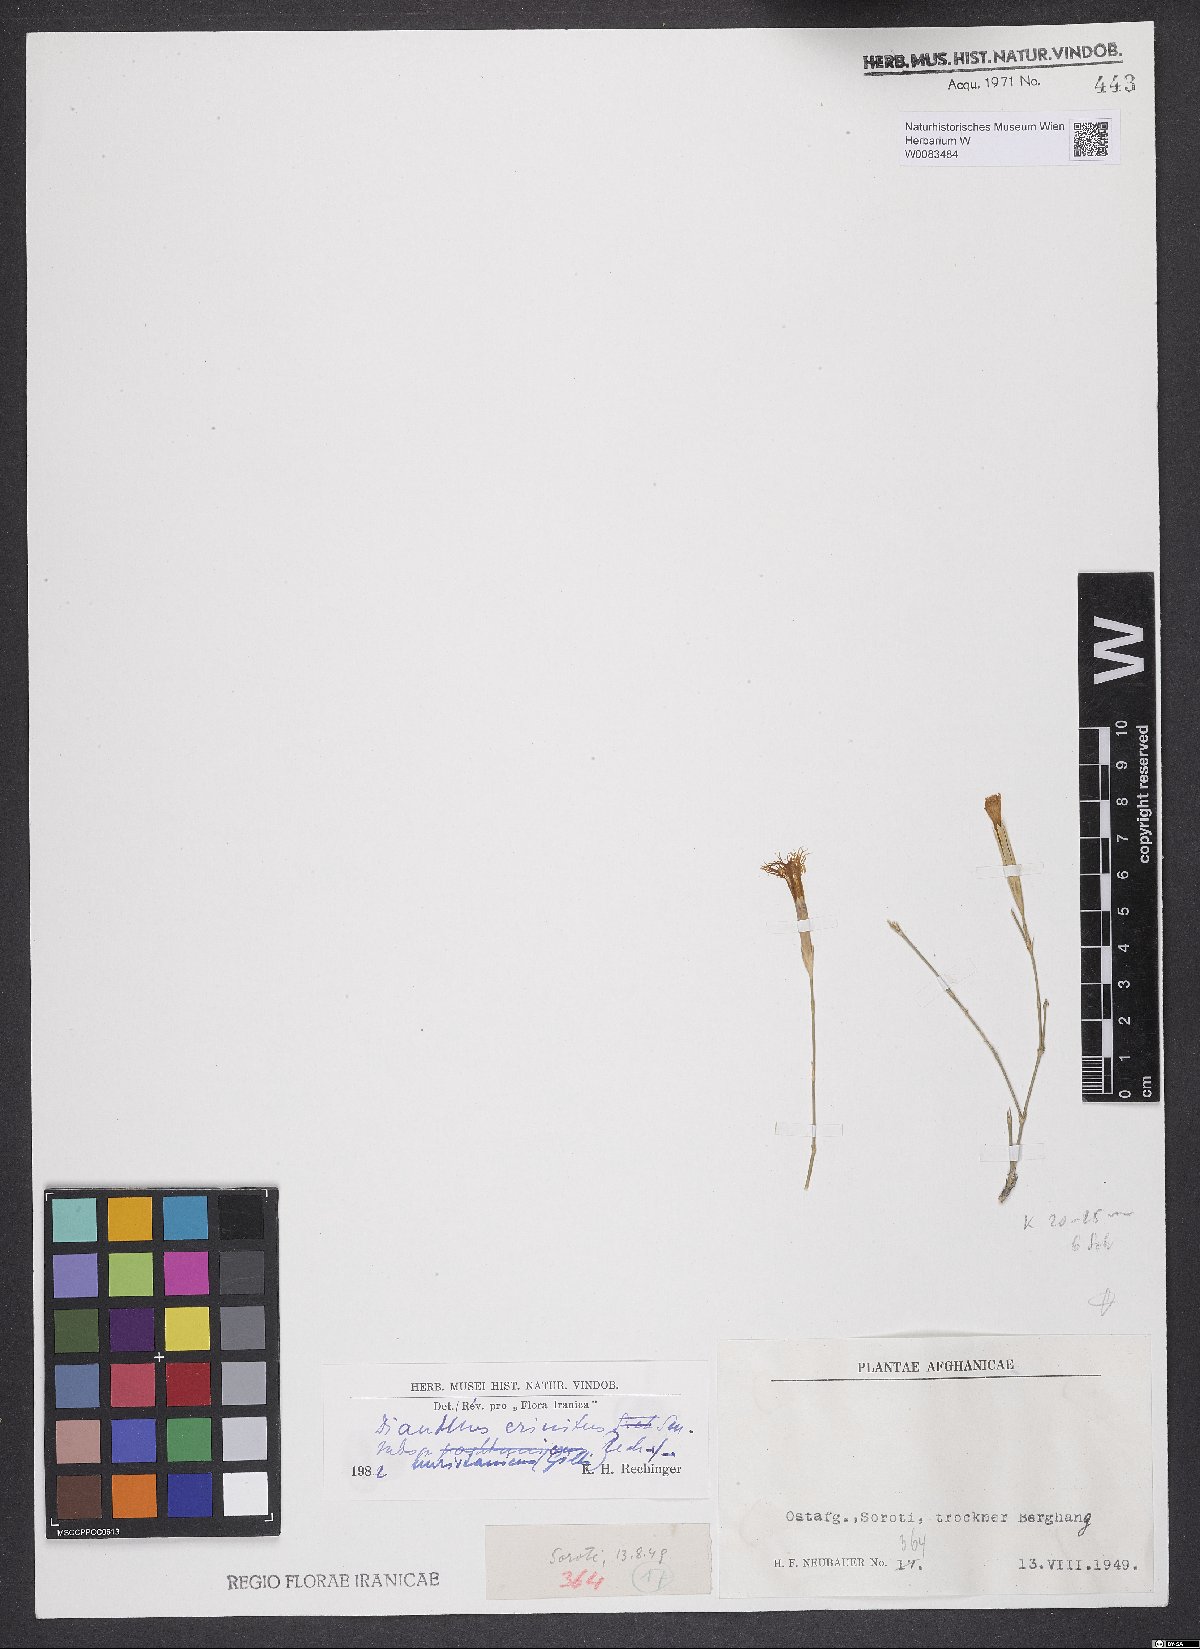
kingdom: Plantae
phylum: Tracheophyta
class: Magnoliopsida
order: Caryophyllales
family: Caryophyllaceae
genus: Dianthus
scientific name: Dianthus crinitus
